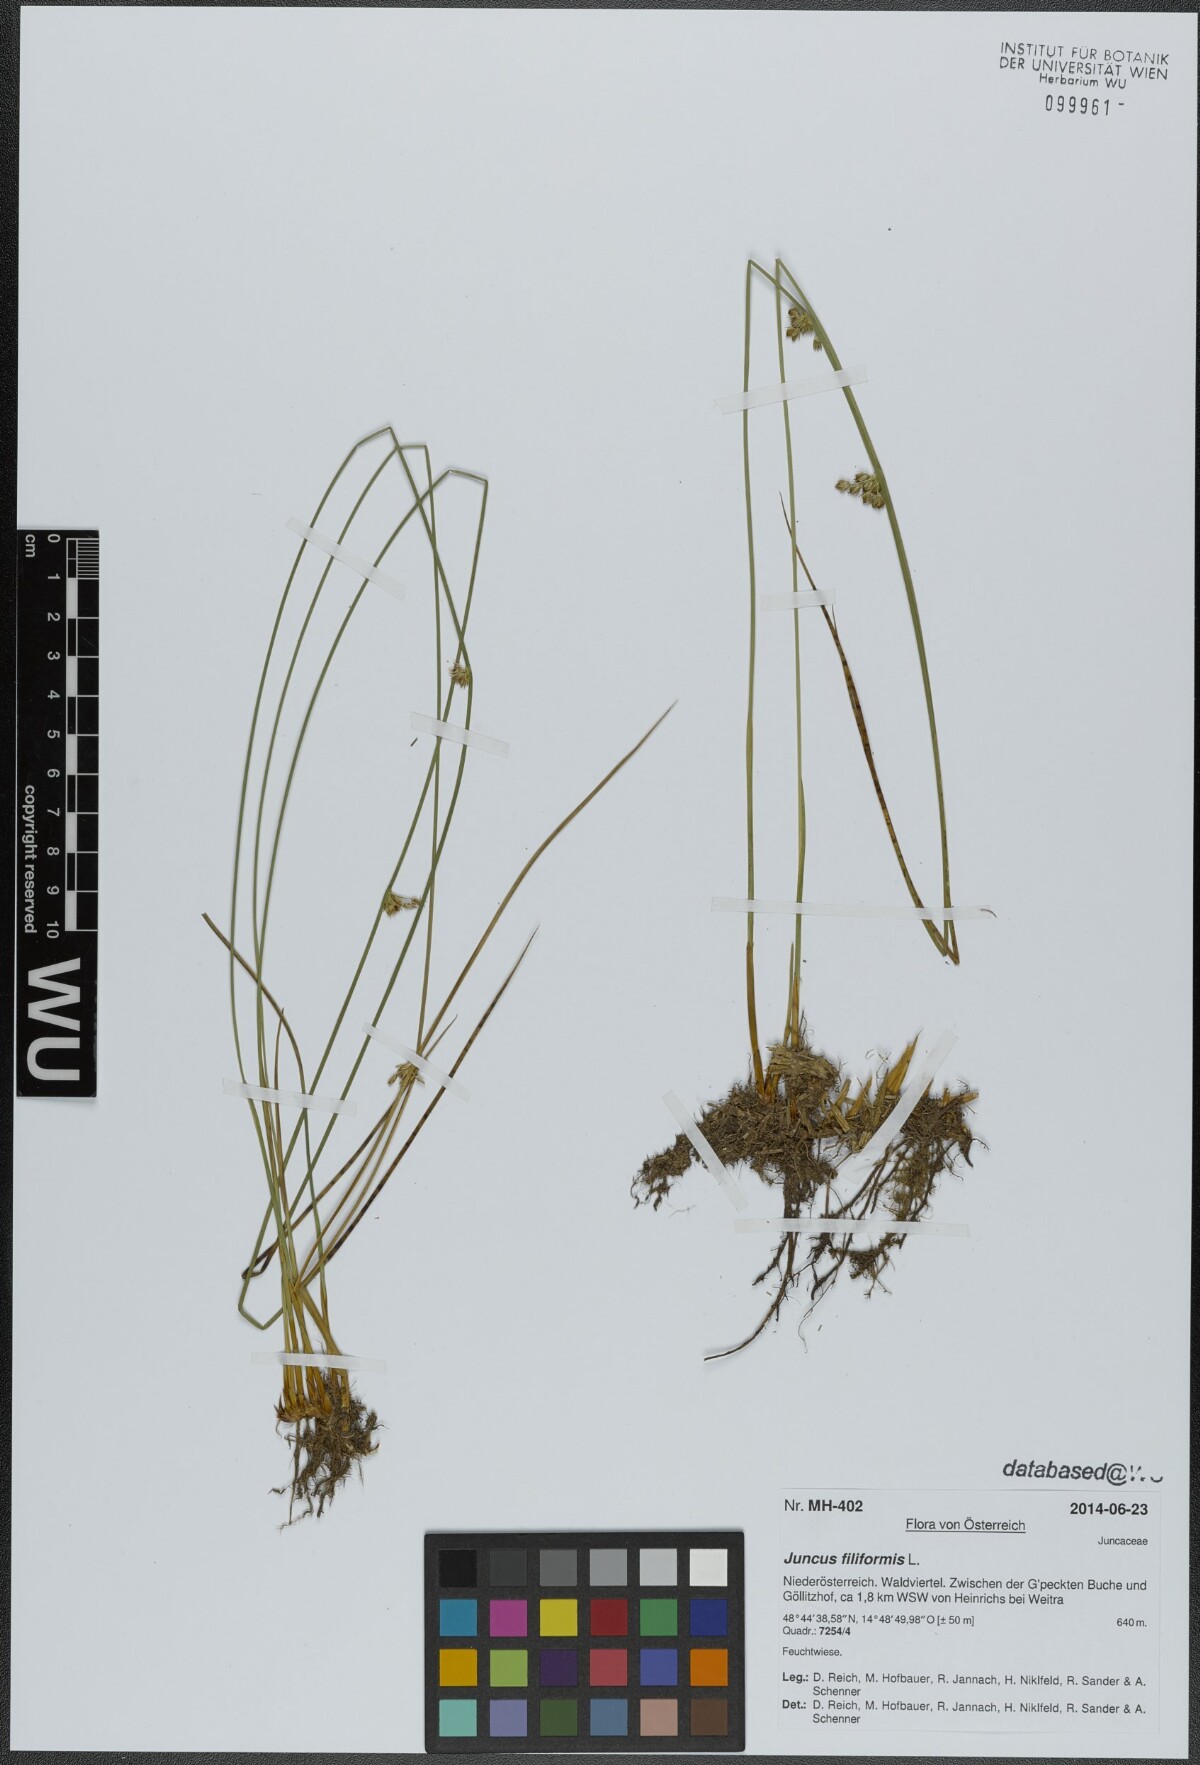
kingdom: Plantae
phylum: Tracheophyta
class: Liliopsida
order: Poales
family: Juncaceae
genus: Juncus
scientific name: Juncus filiformis
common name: Thread rush
